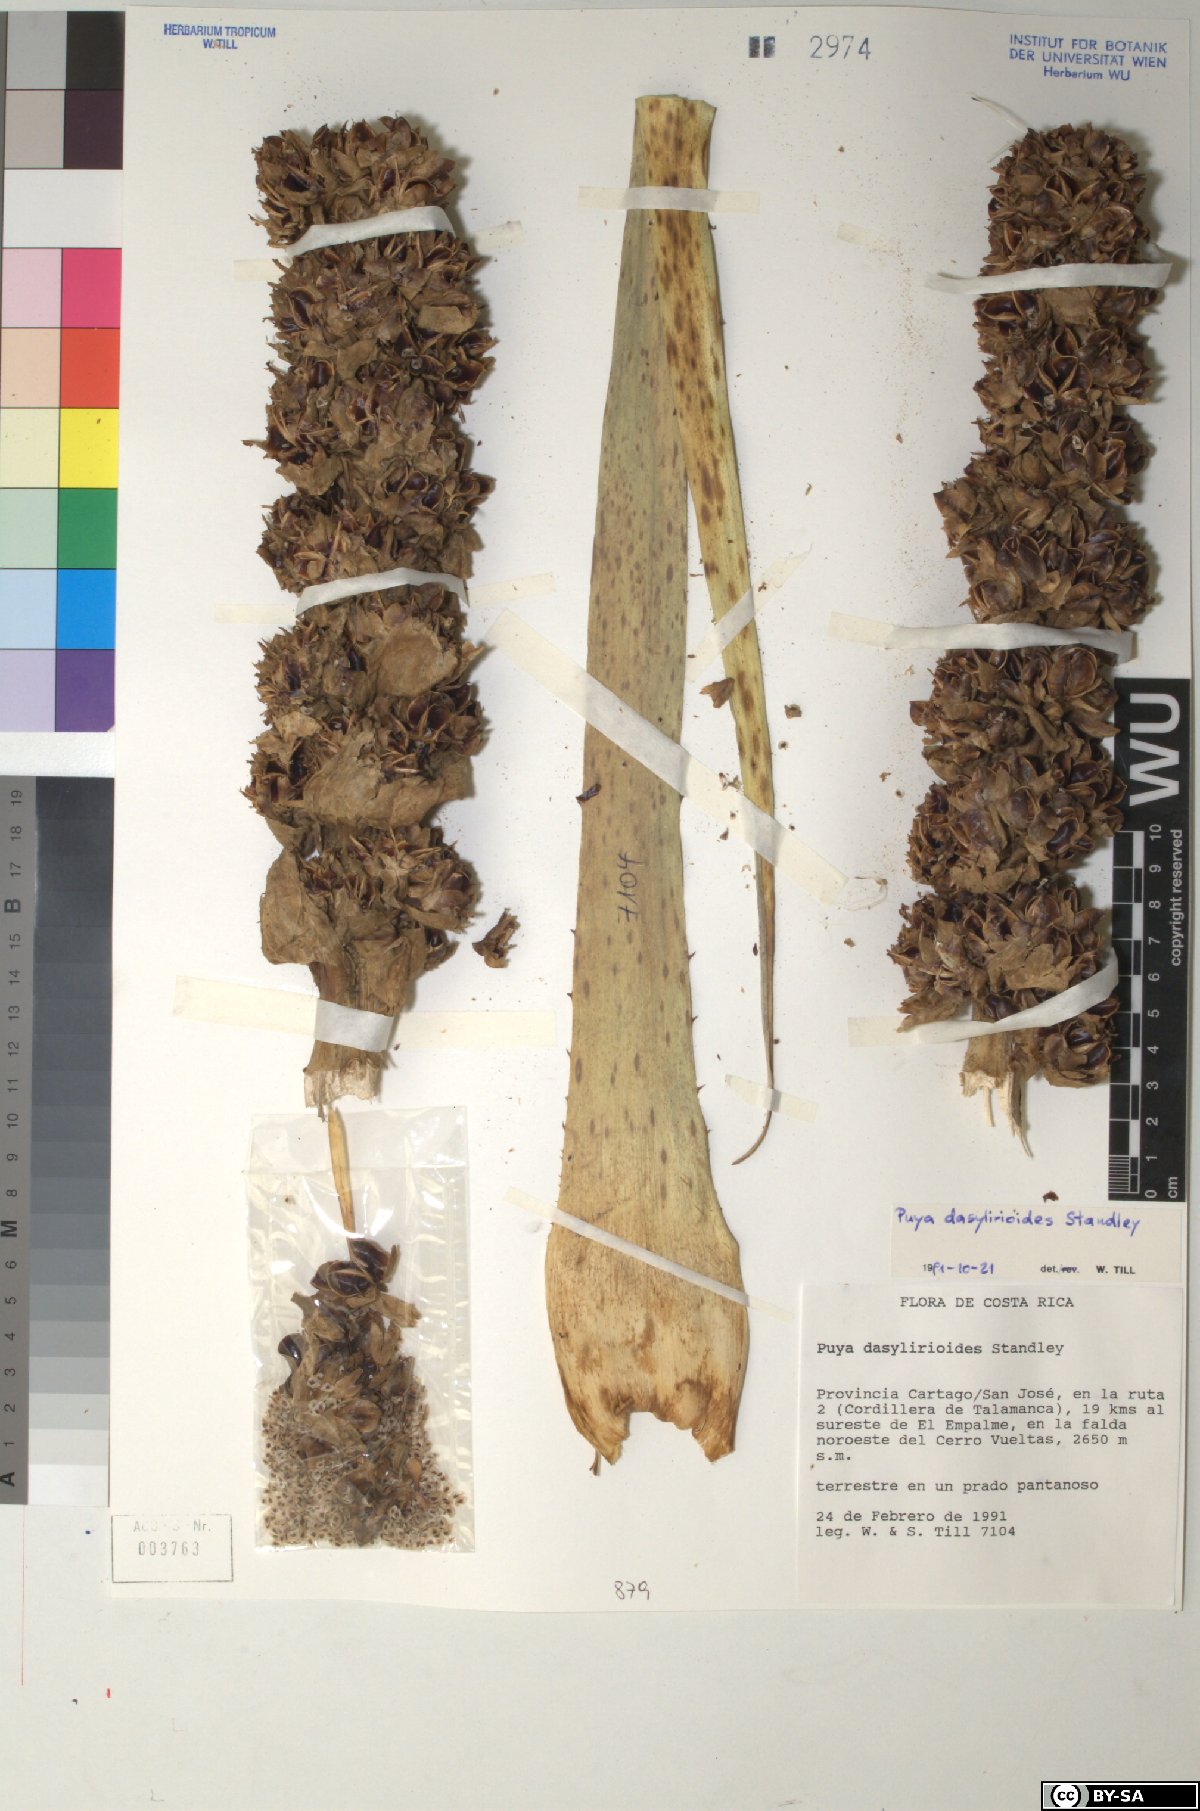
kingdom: Plantae
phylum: Tracheophyta
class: Liliopsida
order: Poales
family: Bromeliaceae
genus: Puya
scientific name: Puya dasylirioides
